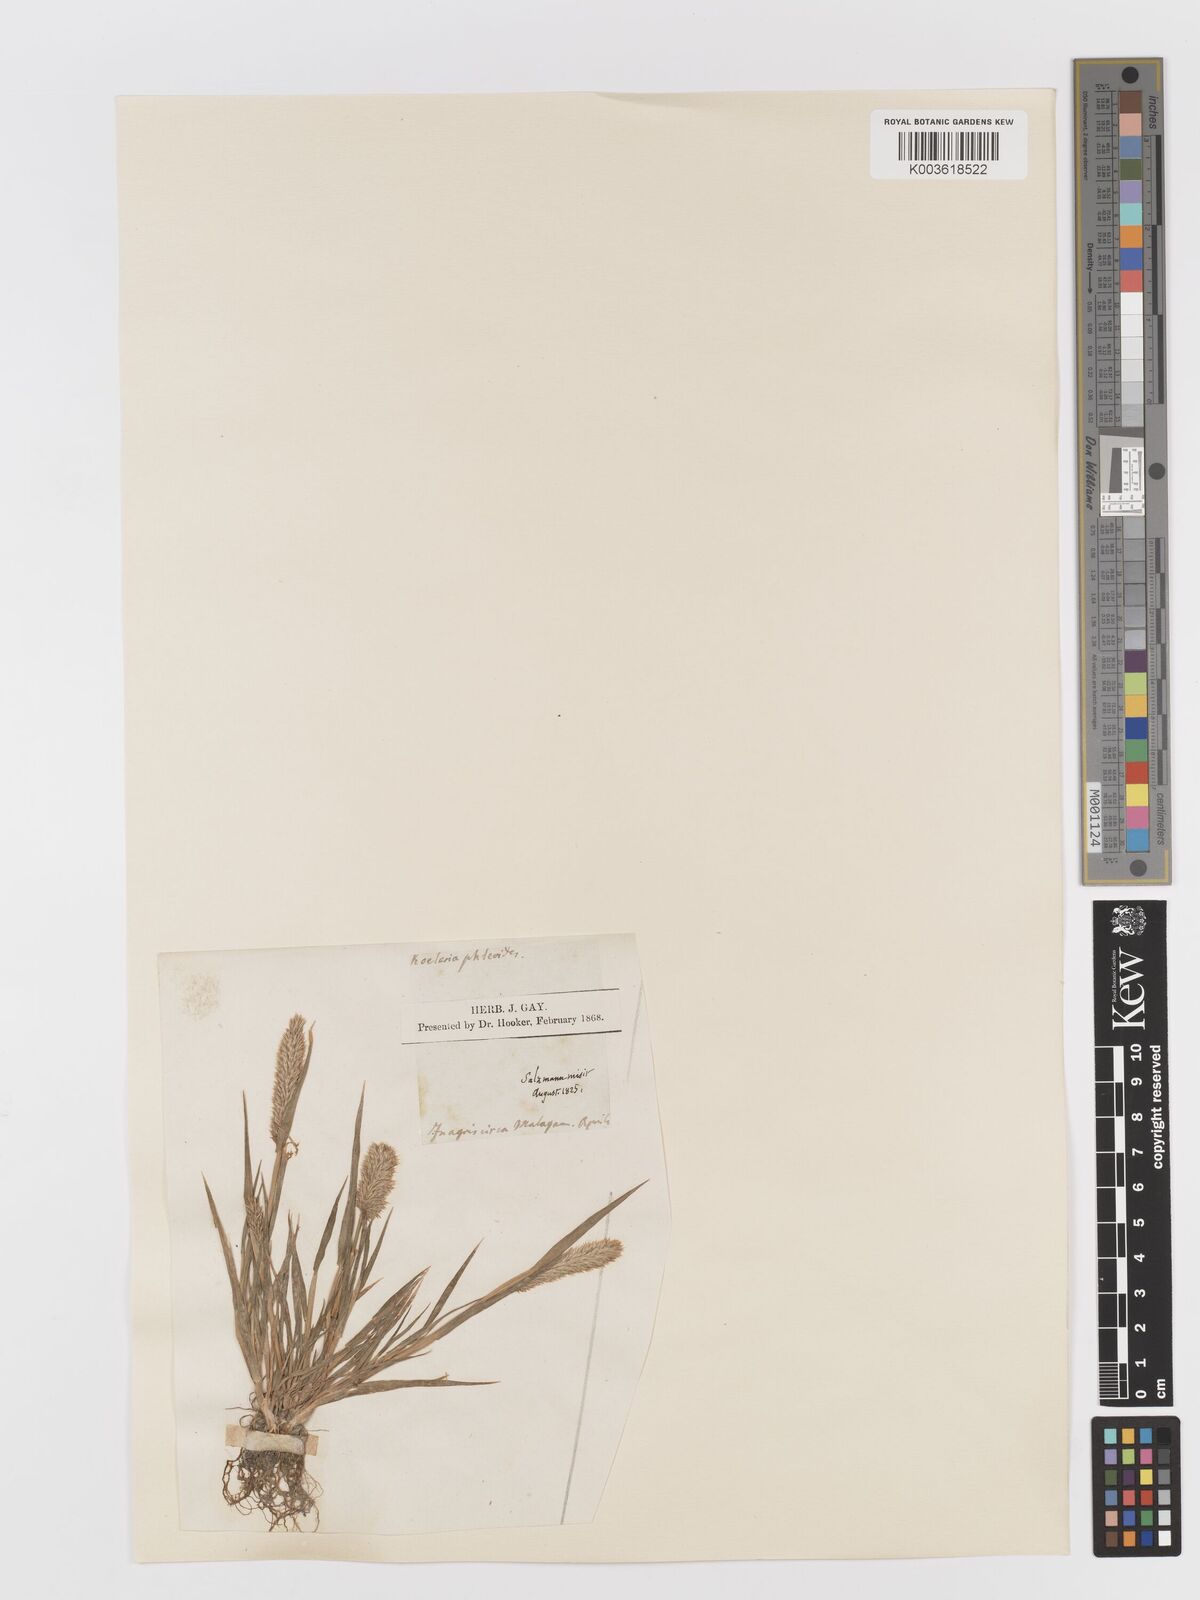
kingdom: Plantae
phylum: Tracheophyta
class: Liliopsida
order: Poales
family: Poaceae
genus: Rostraria
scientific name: Rostraria cristata
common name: Mediterranean hair-grass
